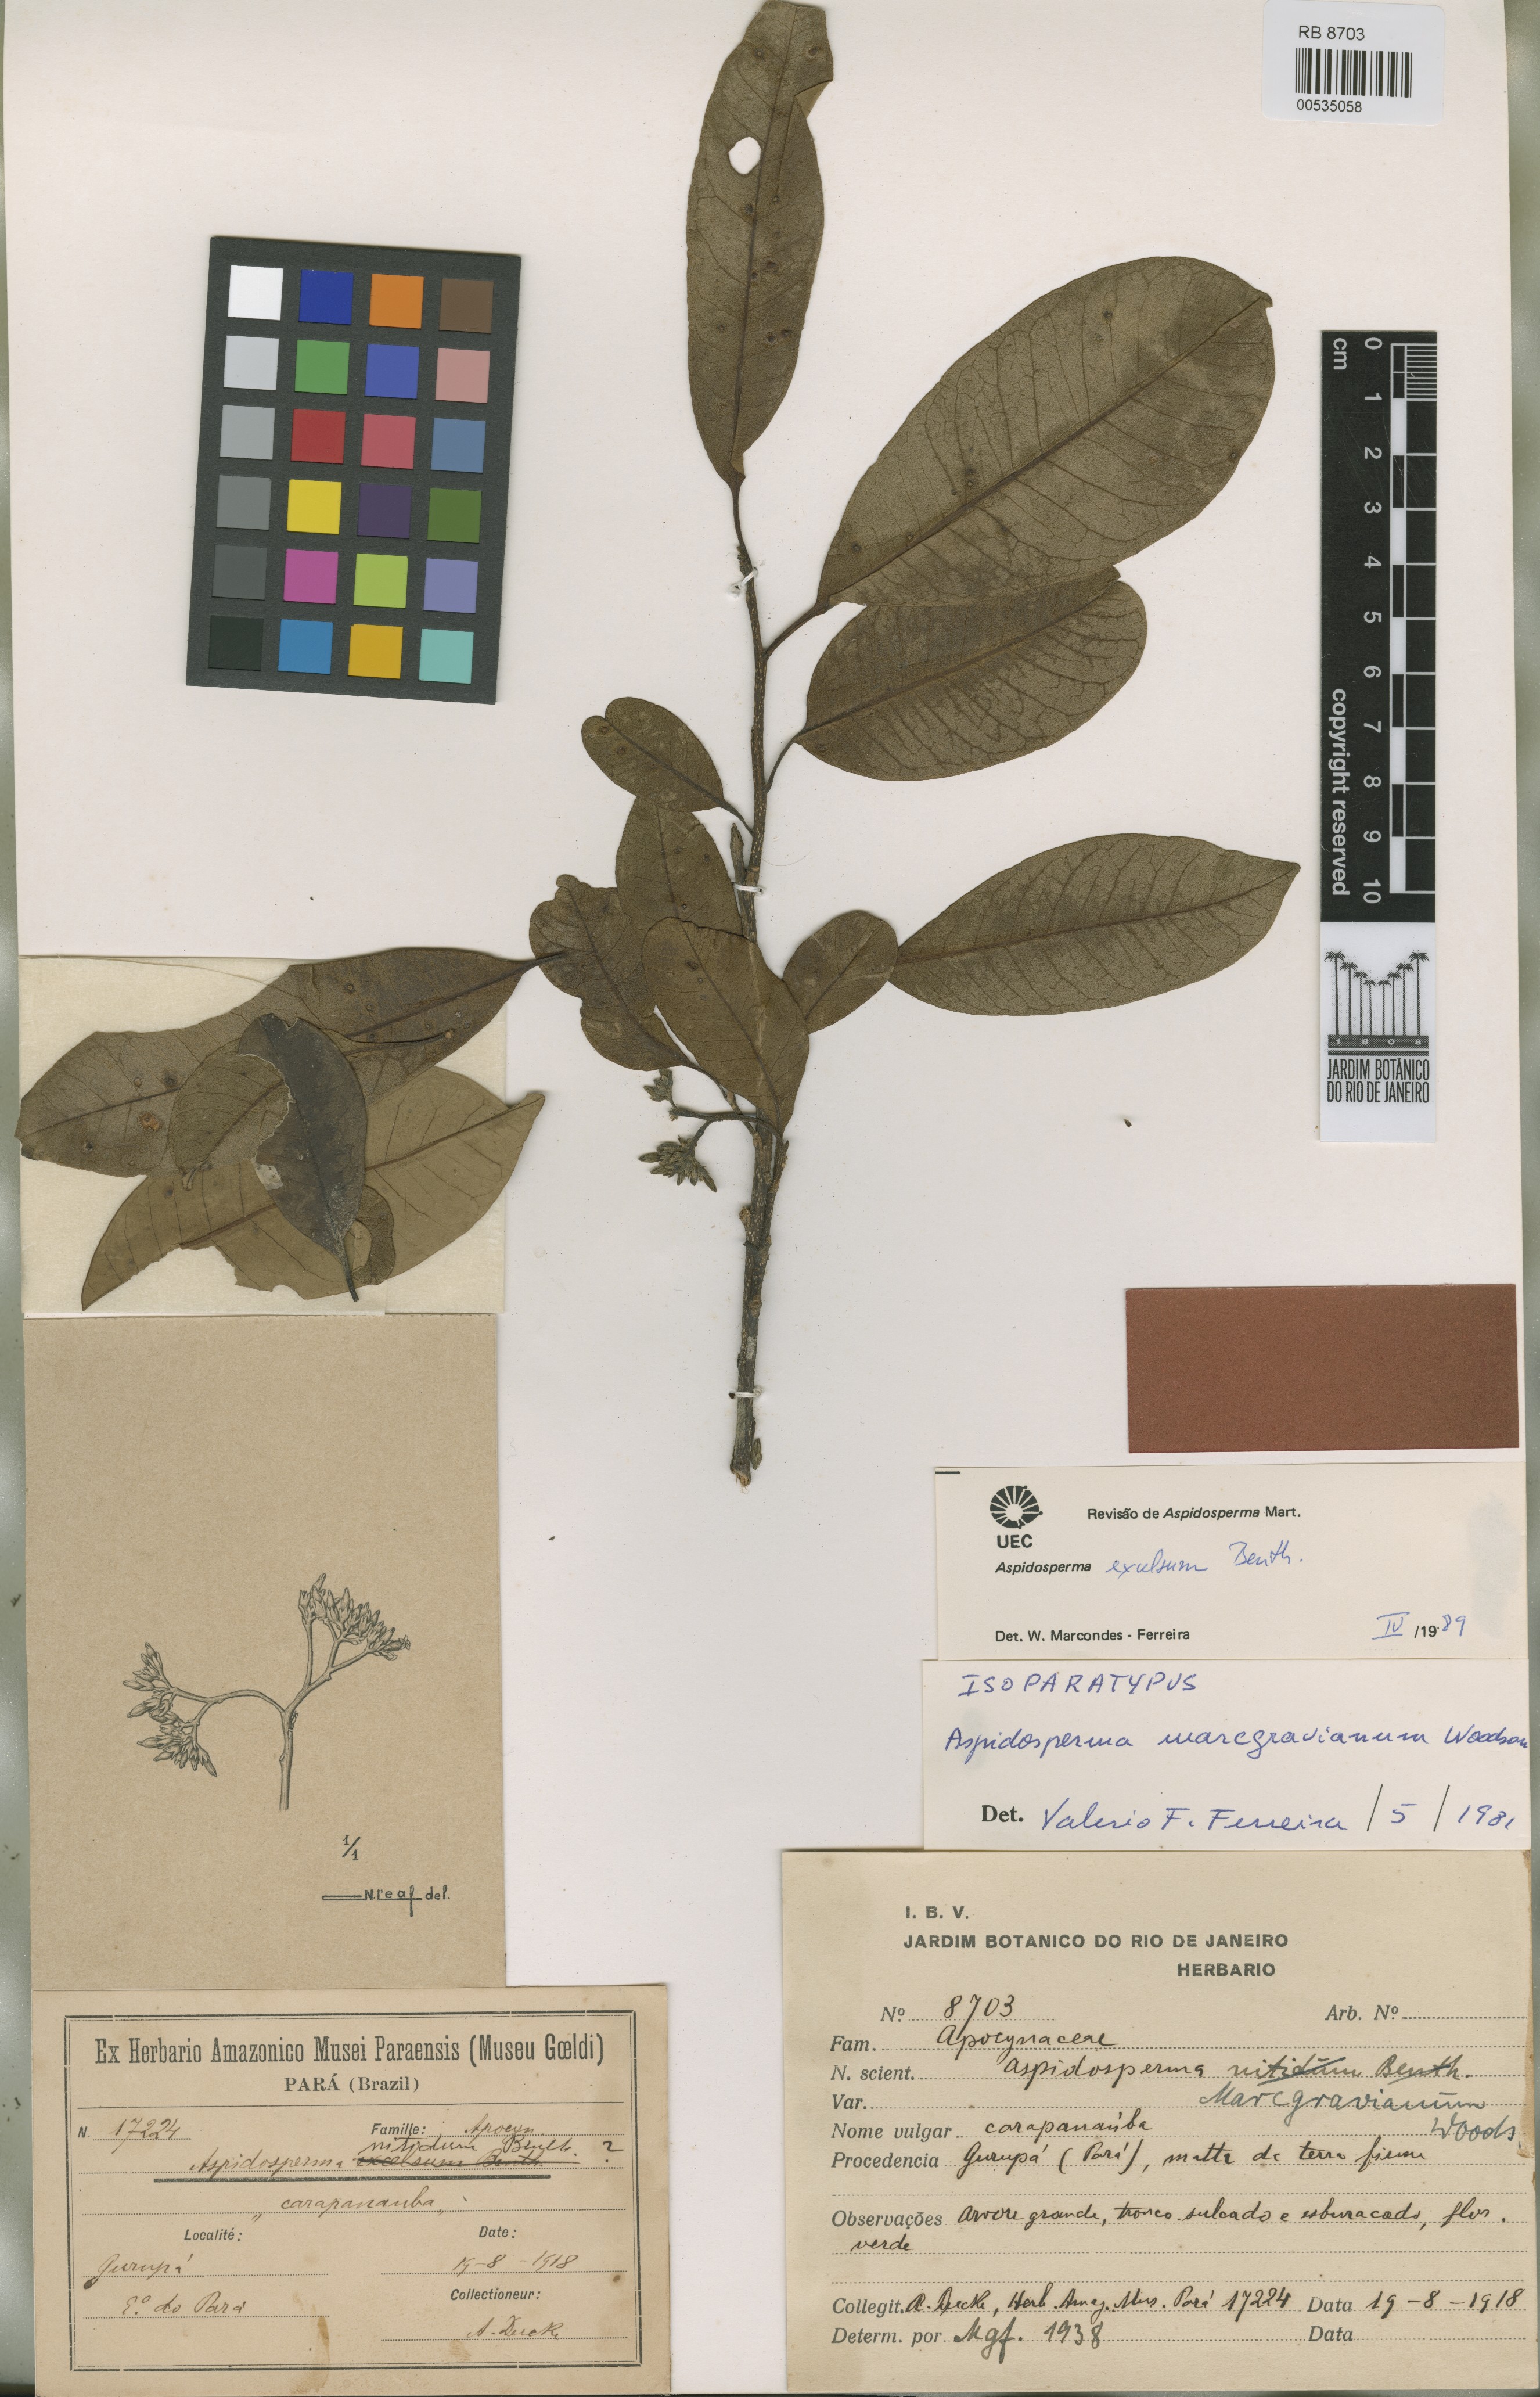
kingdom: Plantae
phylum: Tracheophyta
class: Magnoliopsida
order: Gentianales
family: Apocynaceae
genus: Aspidosperma
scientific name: Aspidosperma excelsum
